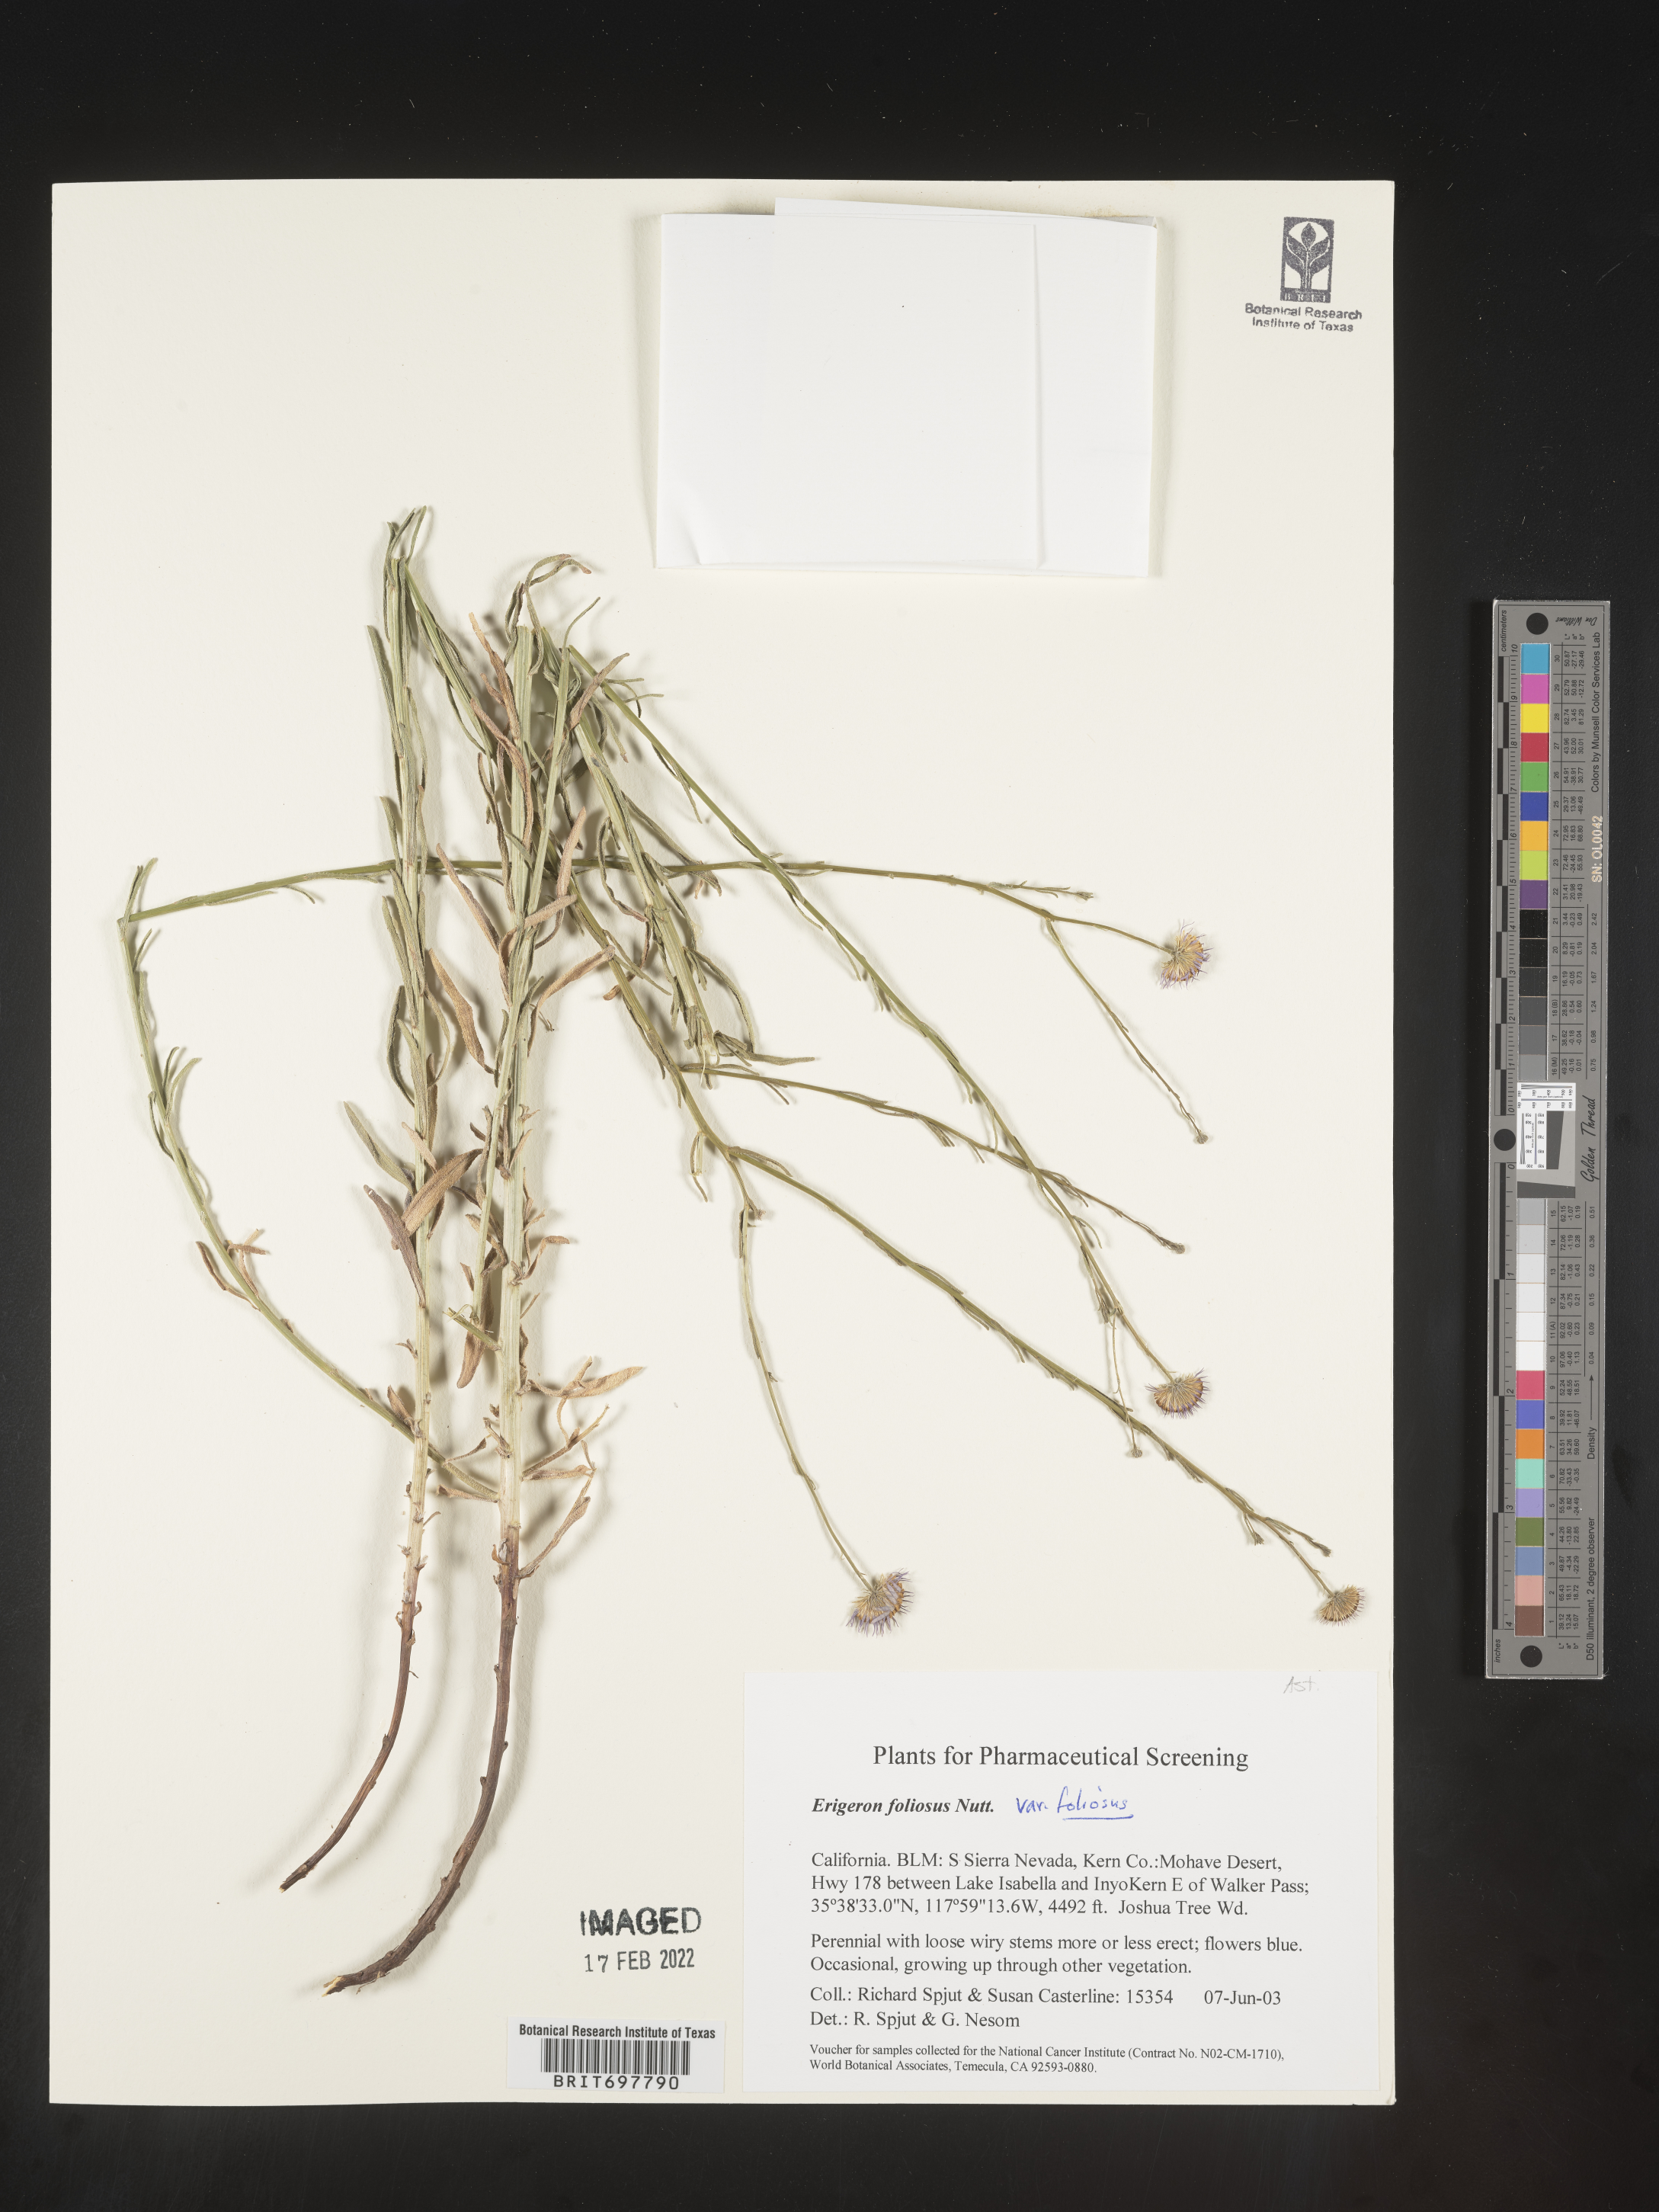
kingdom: Plantae
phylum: Tracheophyta
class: Magnoliopsida
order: Asterales
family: Asteraceae
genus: Erigeron
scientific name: Erigeron foliosus
